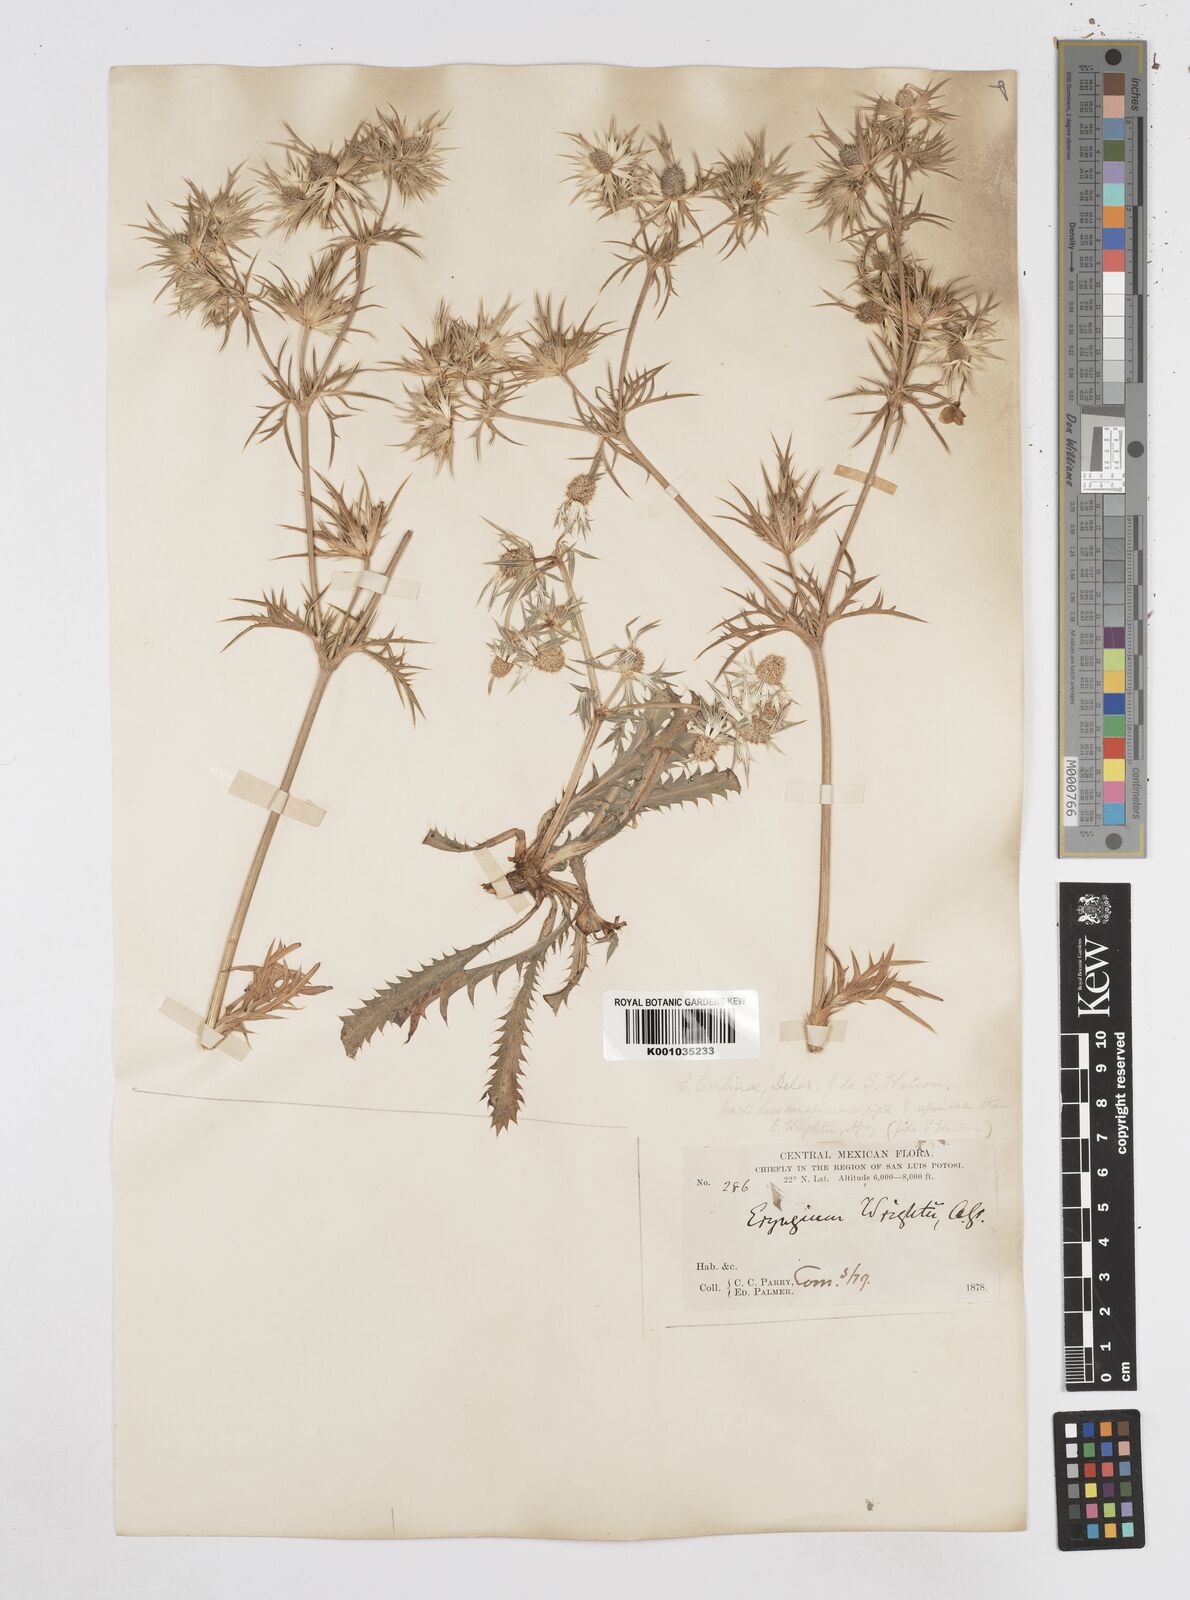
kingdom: Plantae
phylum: Tracheophyta
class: Magnoliopsida
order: Apiales
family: Apiaceae
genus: Eryngium
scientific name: Eryngium heterophyllum
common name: Mexican thistle
